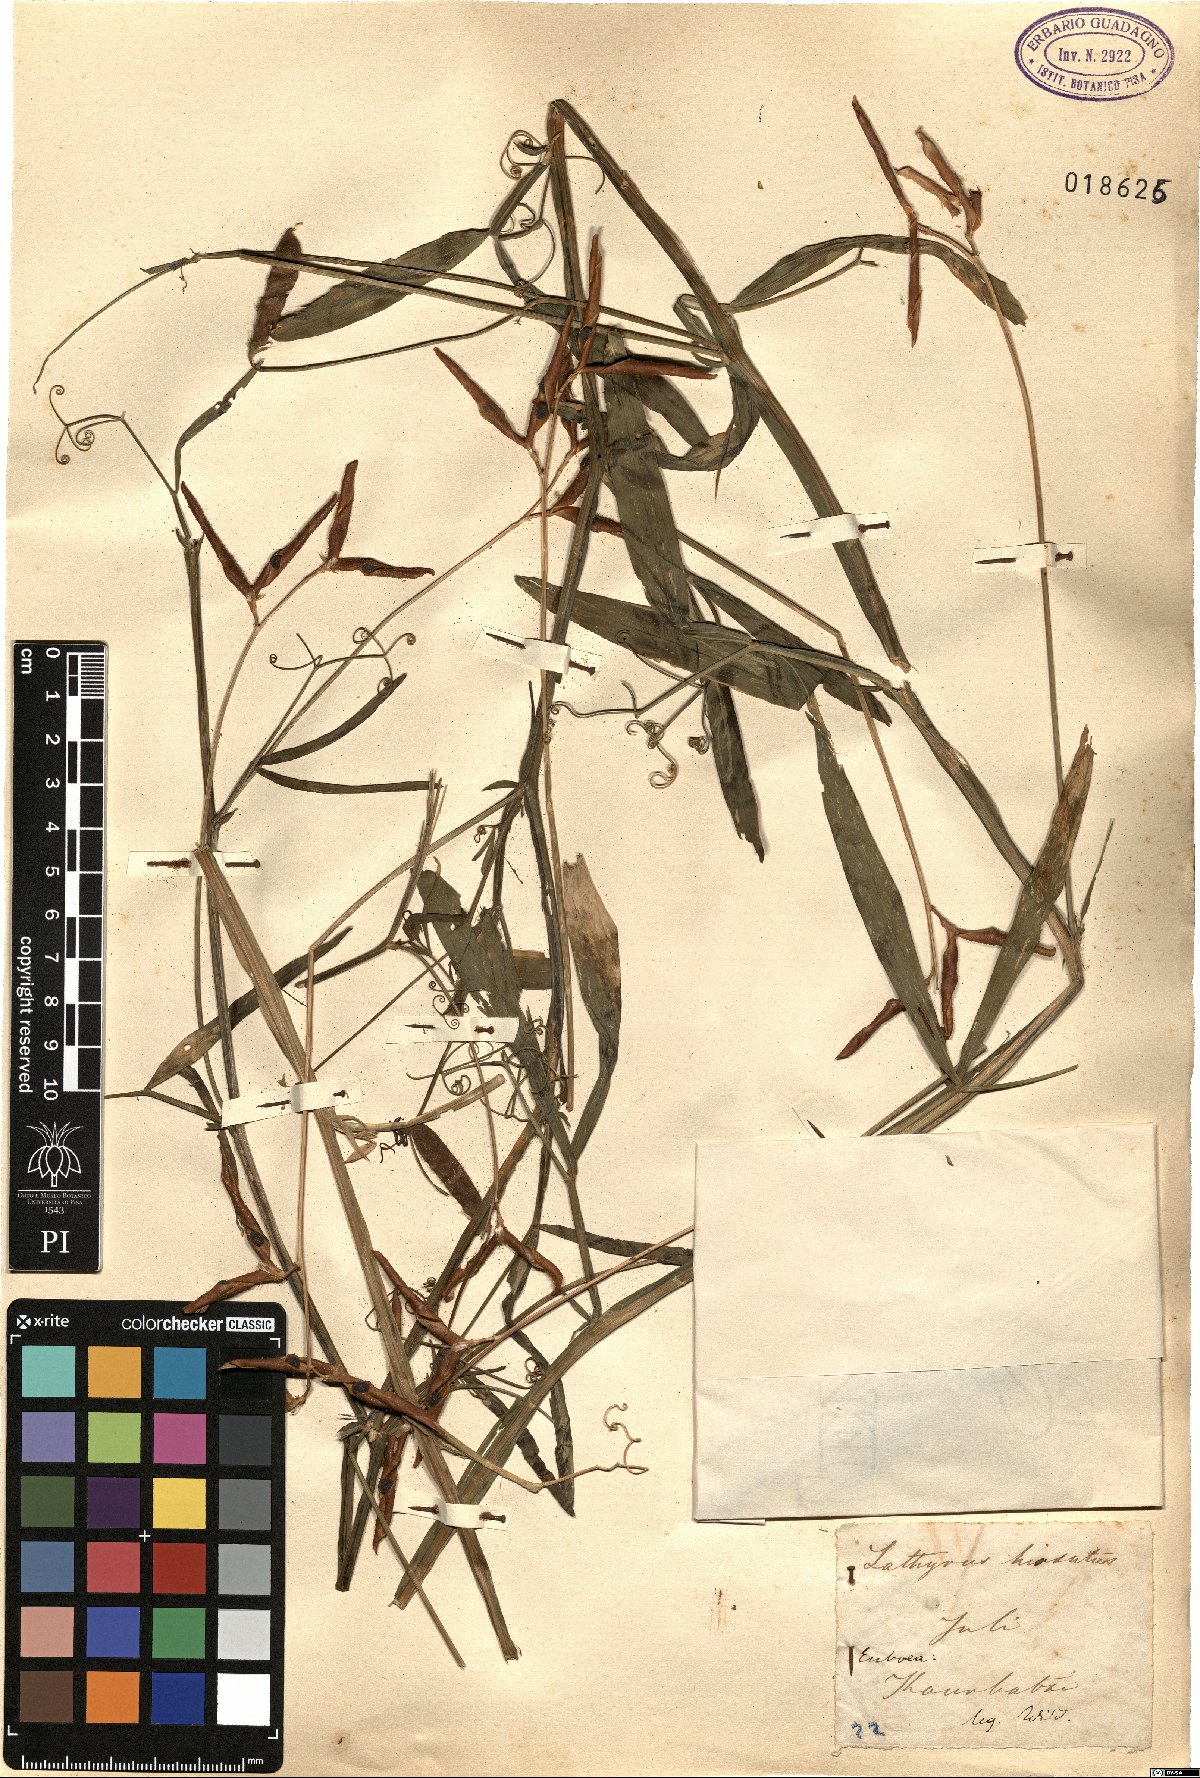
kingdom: Plantae
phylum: Tracheophyta
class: Magnoliopsida
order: Fabales
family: Fabaceae
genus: Lathyrus
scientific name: Lathyrus hirsutus
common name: Hairy vetchling
